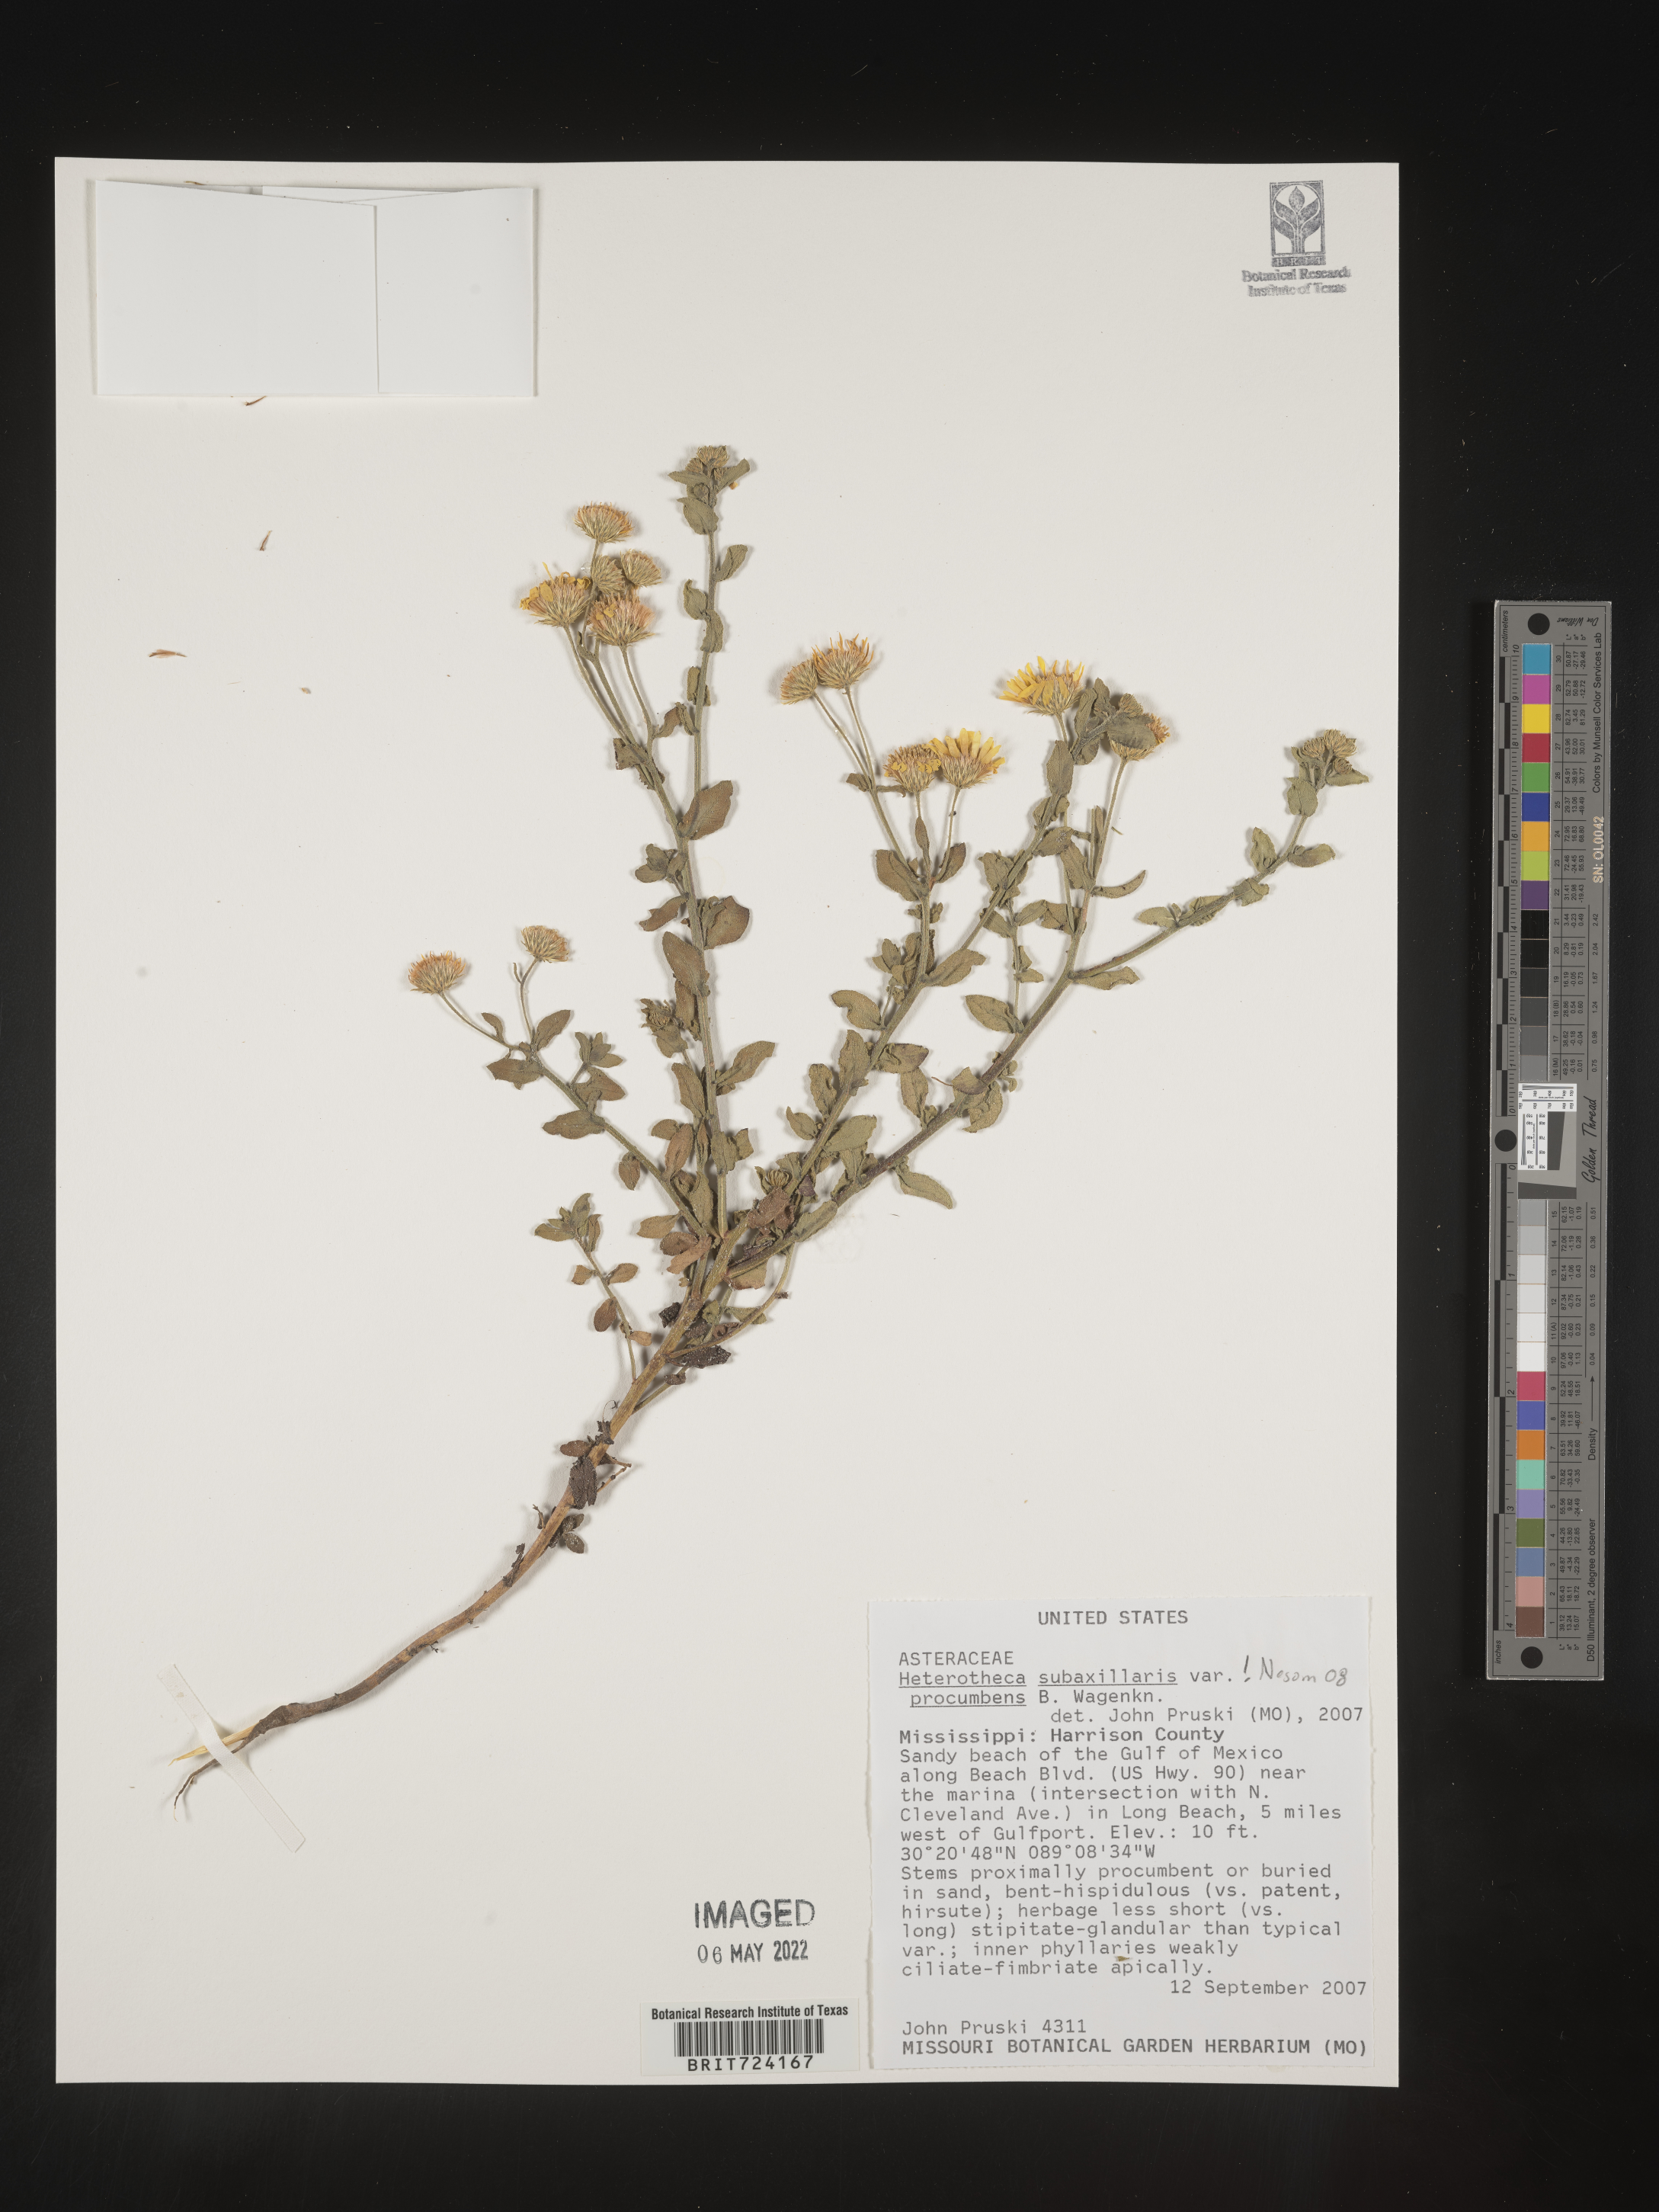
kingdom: Plantae
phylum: Tracheophyta
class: Magnoliopsida
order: Asterales
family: Asteraceae
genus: Heterotheca
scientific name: Heterotheca subaxillaris
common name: Camphorweed
